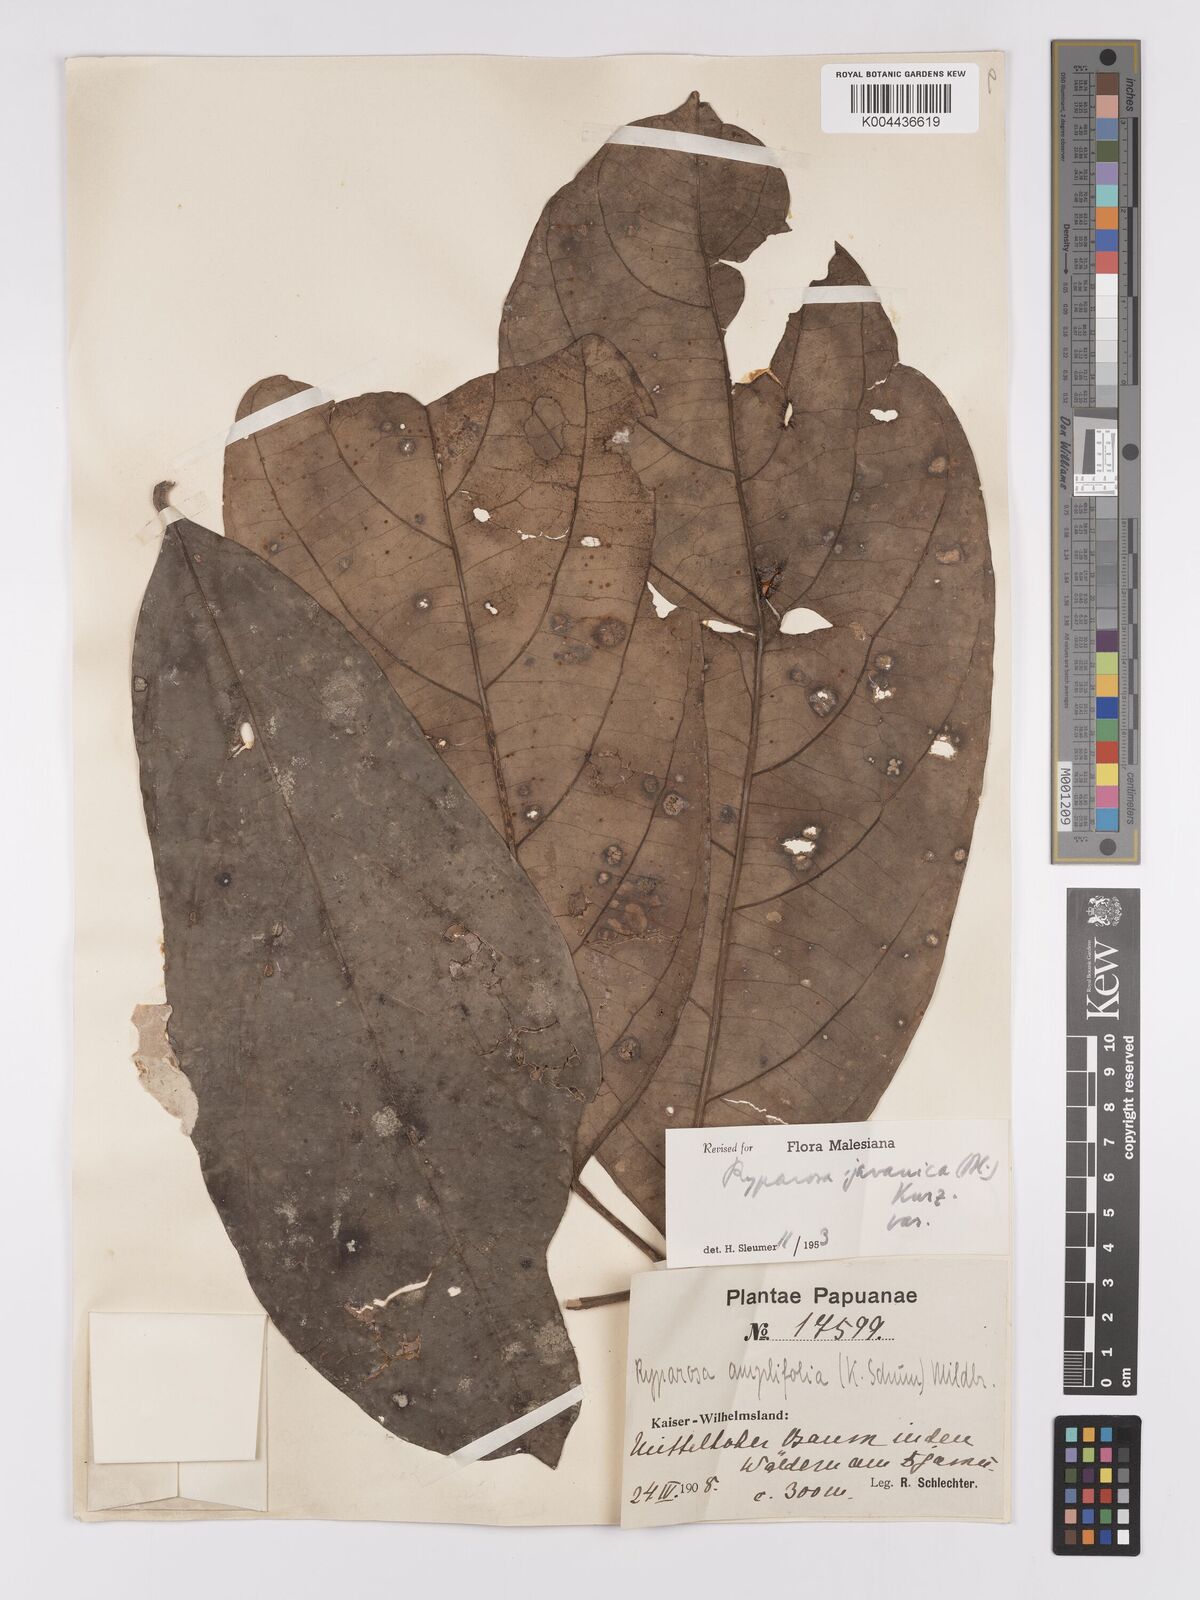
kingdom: Plantae
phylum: Tracheophyta
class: Magnoliopsida
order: Malpighiales
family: Achariaceae
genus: Ryparosa
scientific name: Ryparosa javanica
